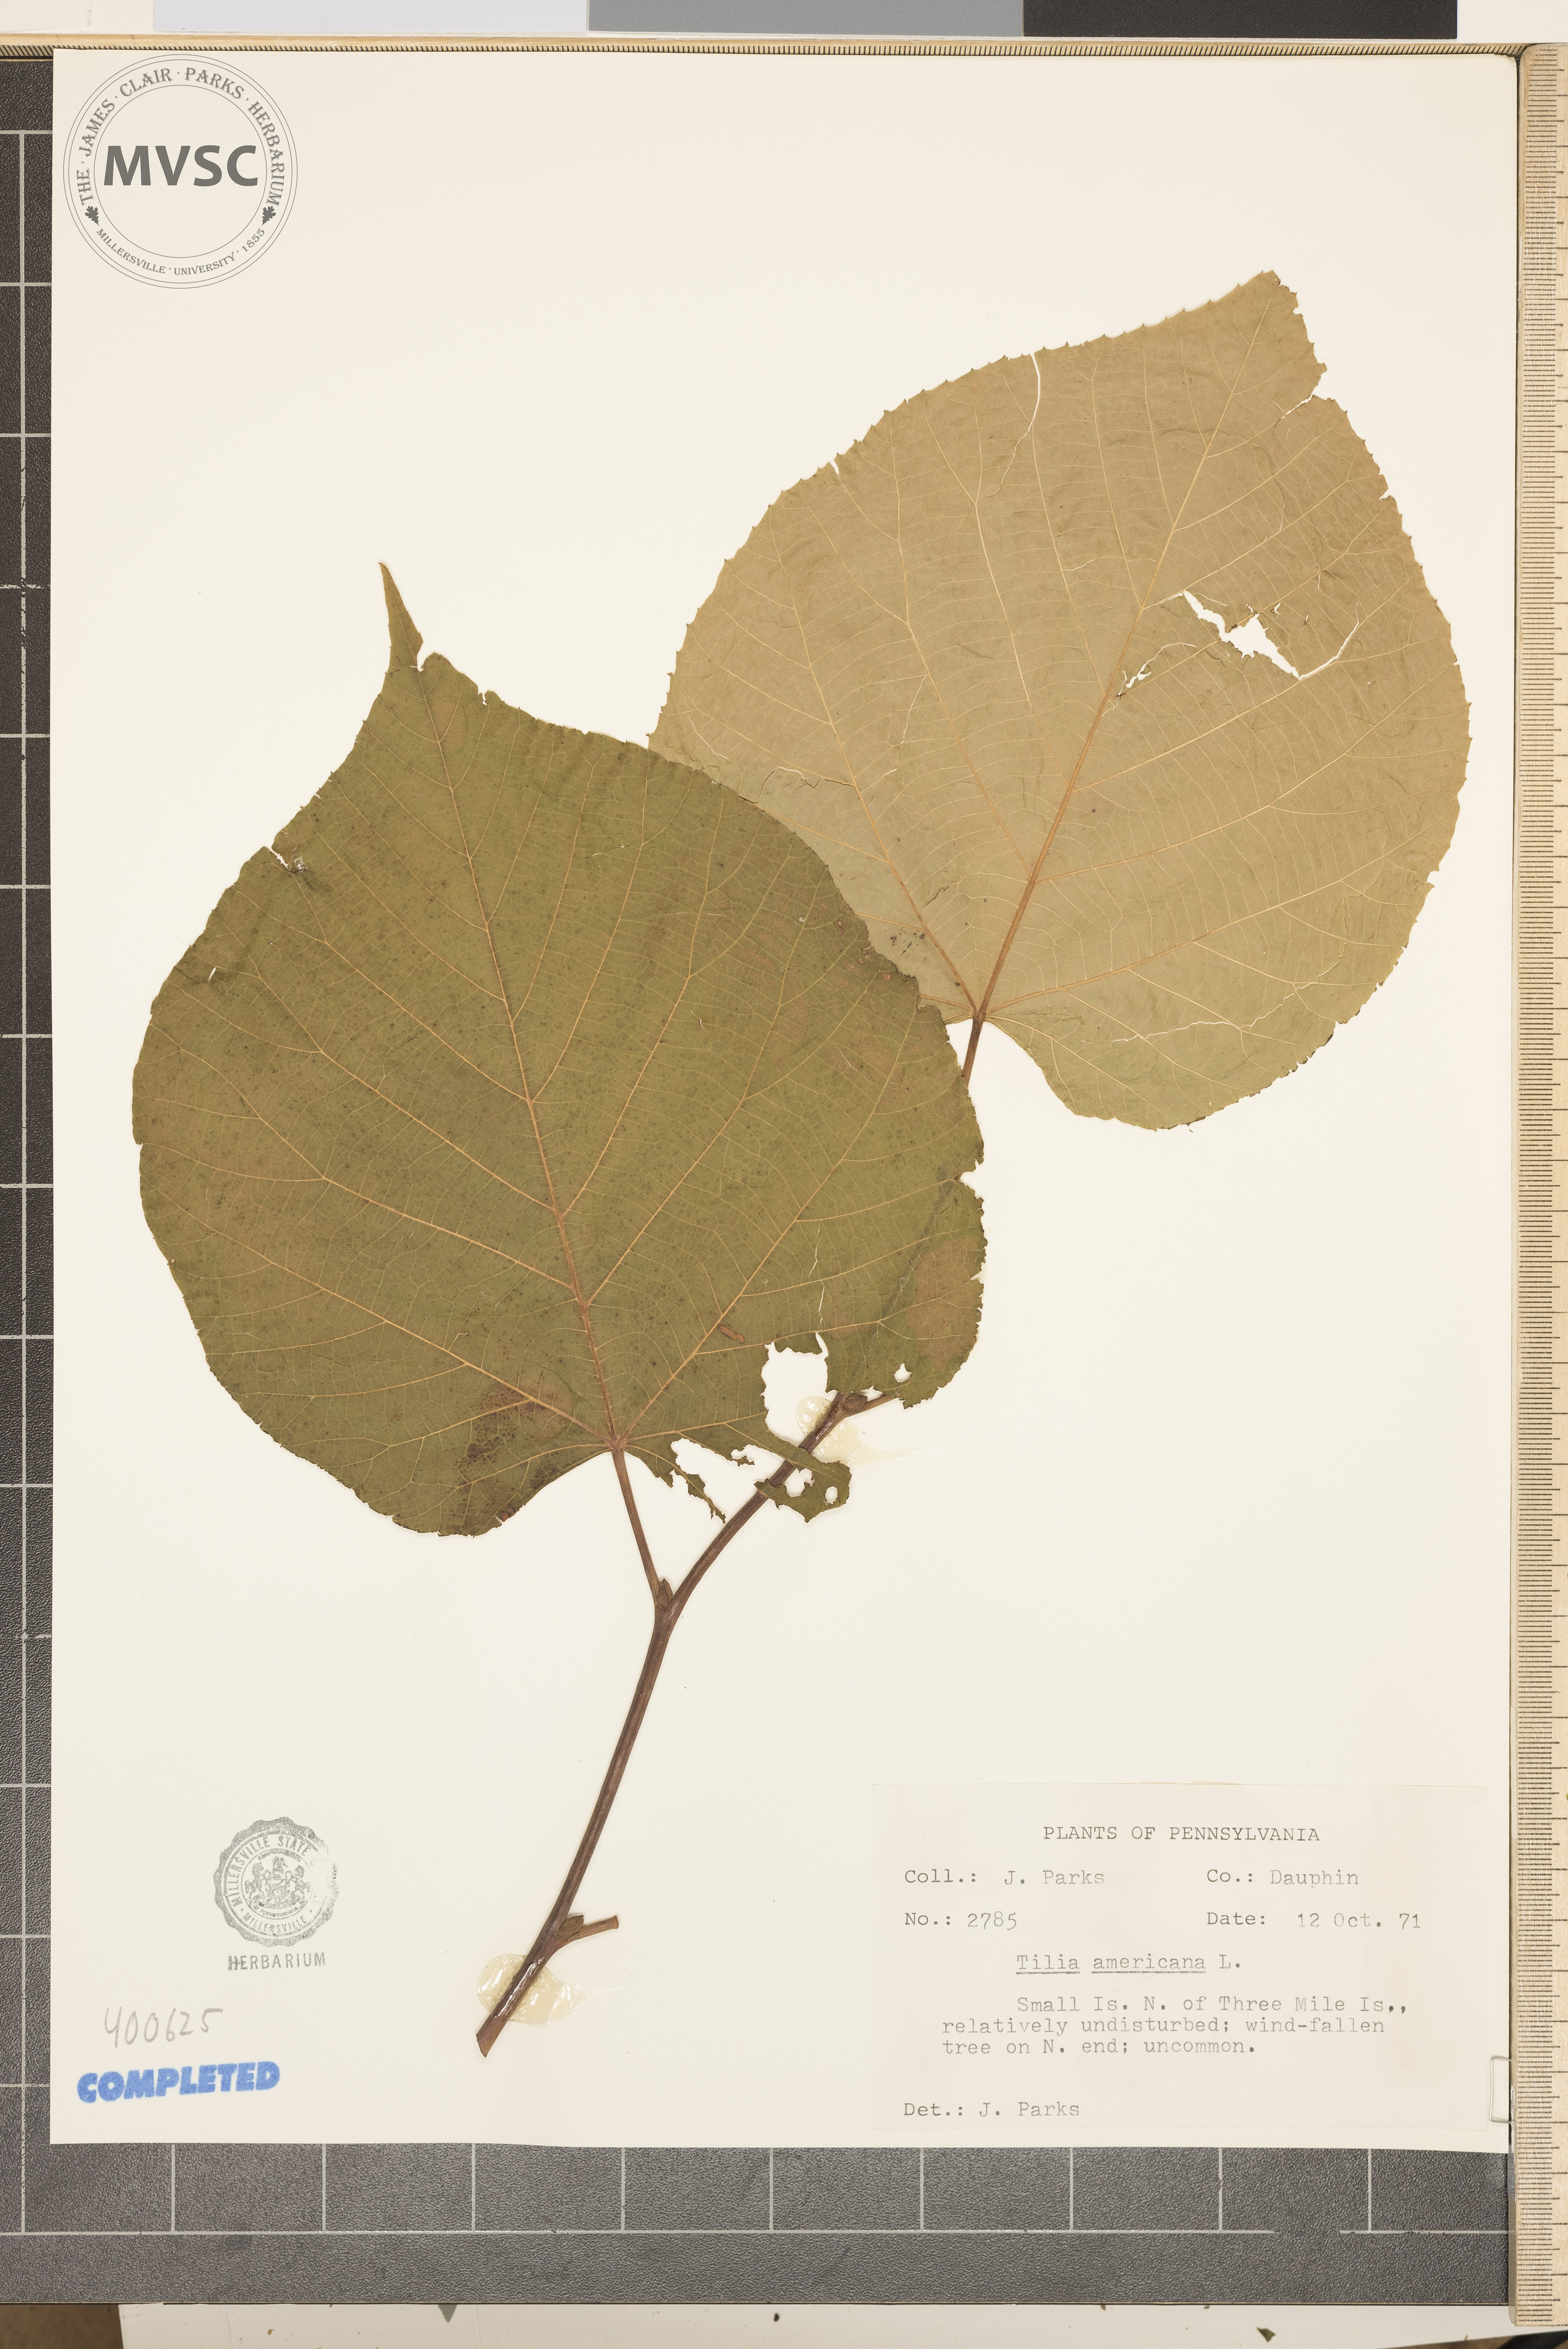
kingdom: Plantae
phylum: Tracheophyta
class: Magnoliopsida
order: Malvales
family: Malvaceae
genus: Tilia
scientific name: Tilia americana
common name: American basswood
